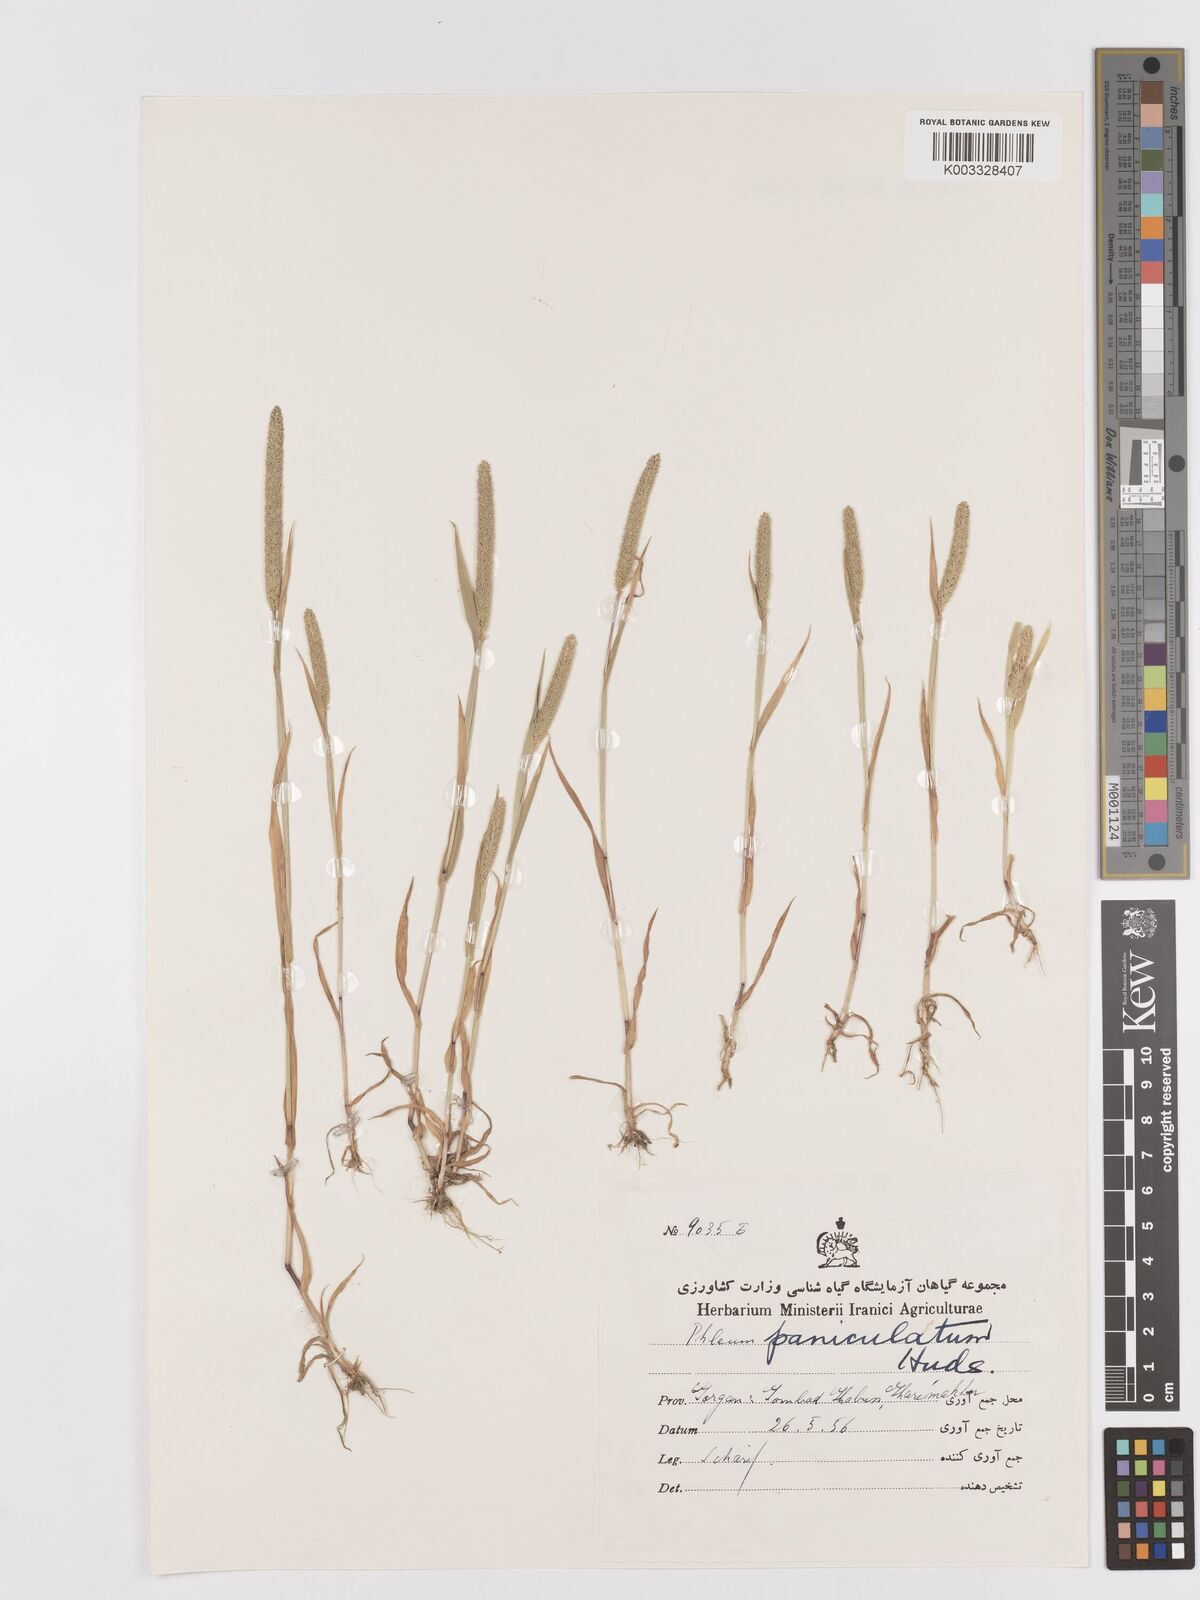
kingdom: Plantae
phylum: Tracheophyta
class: Liliopsida
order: Poales
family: Poaceae
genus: Phleum
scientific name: Phleum paniculatum
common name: British timothy
